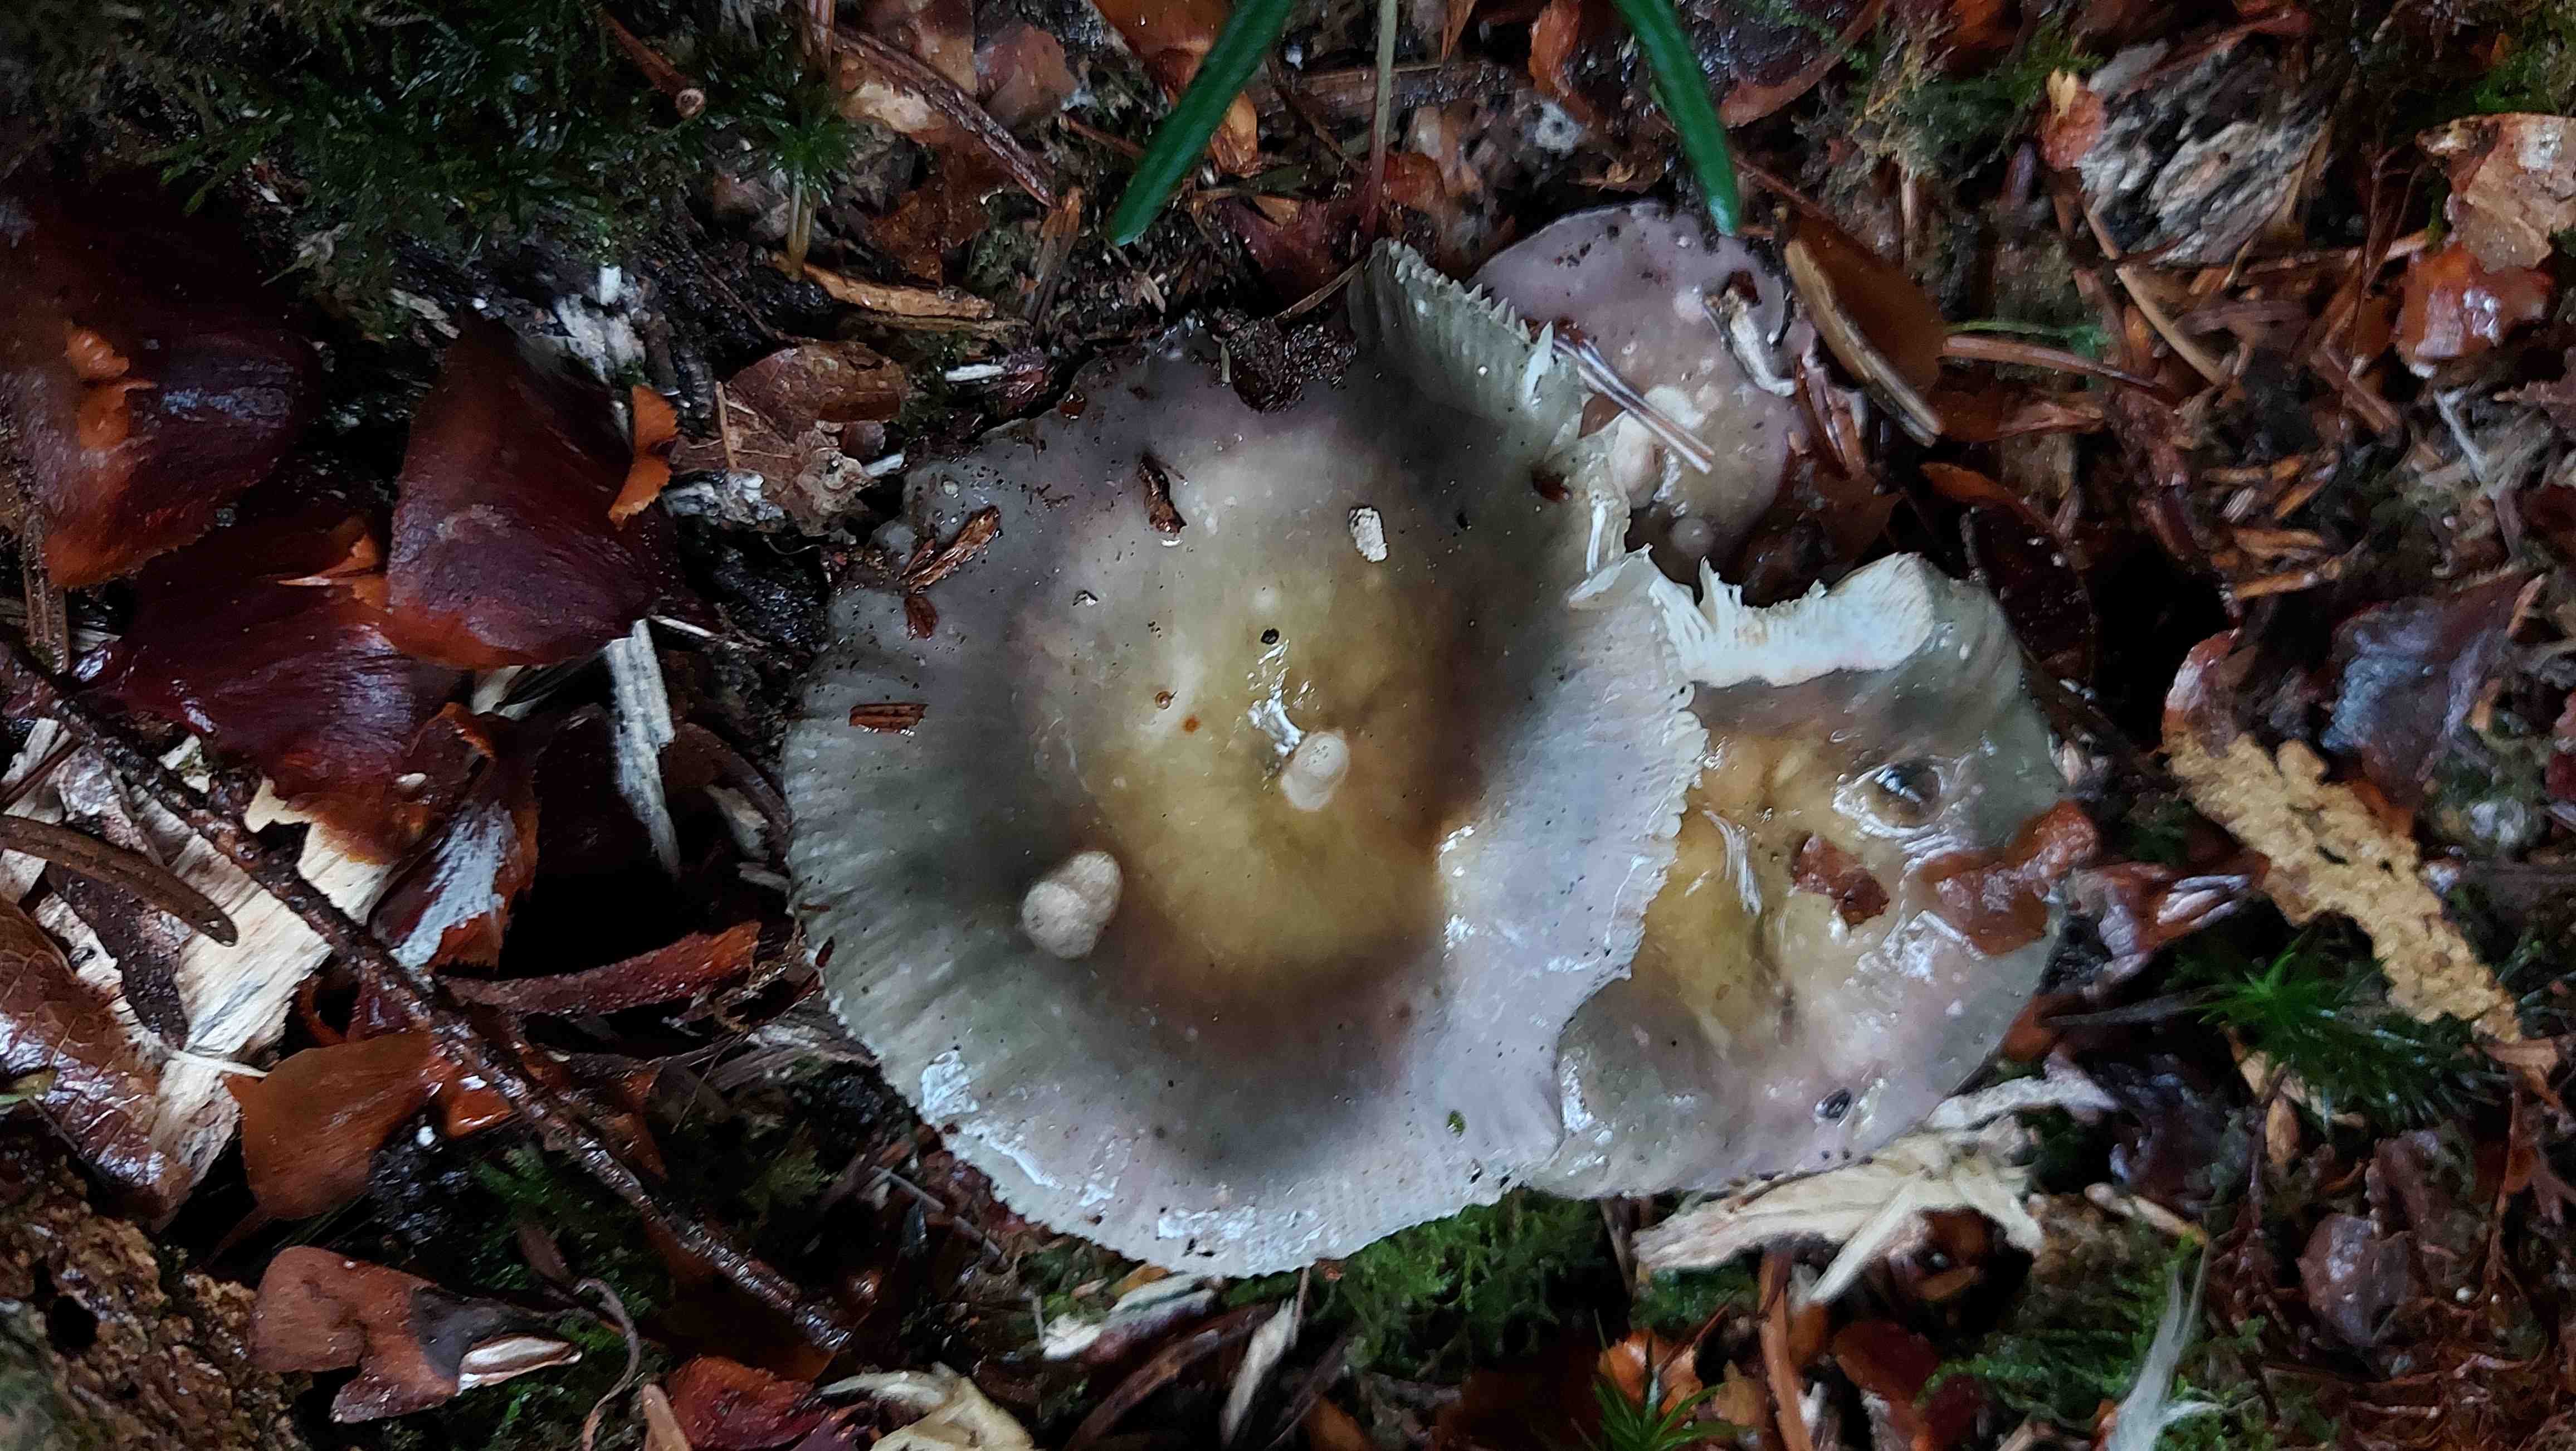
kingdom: Fungi
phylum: Basidiomycota
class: Agaricomycetes
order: Russulales
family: Russulaceae
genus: Russula
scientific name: Russula
